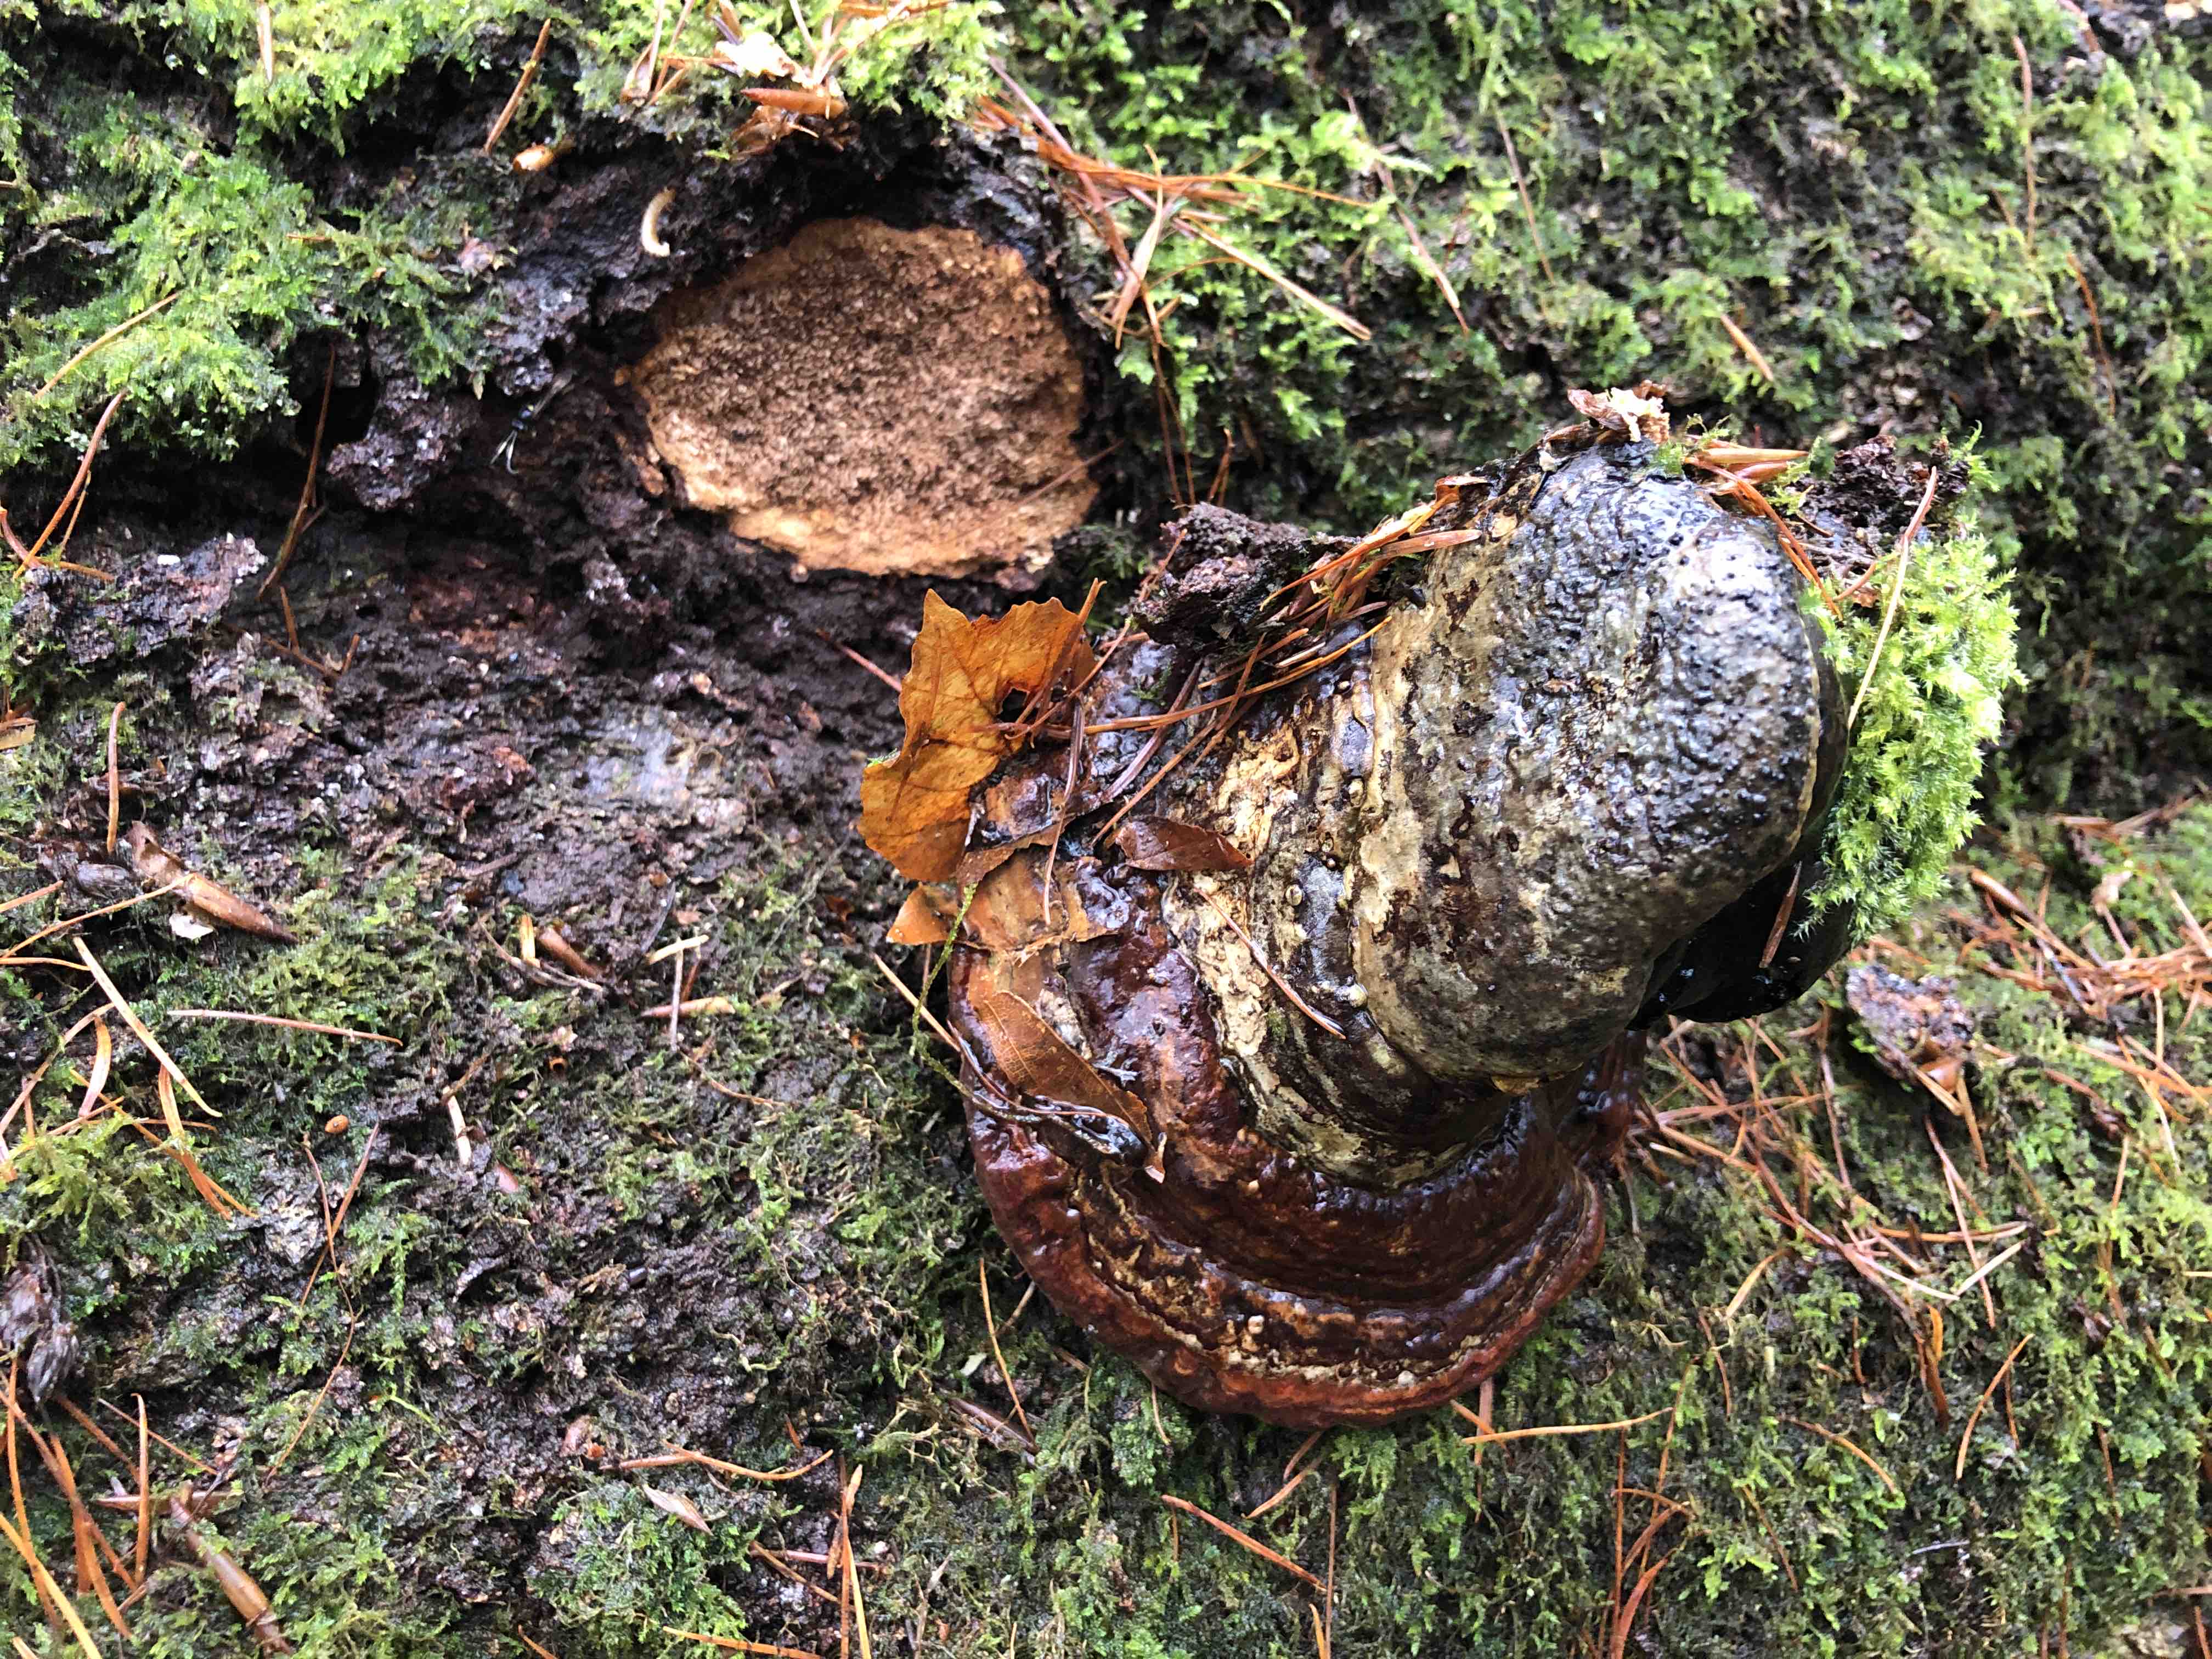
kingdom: Fungi
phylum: Basidiomycota
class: Agaricomycetes
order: Polyporales
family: Polyporaceae
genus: Fomes
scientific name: Fomes fomentarius
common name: tøndersvamp
